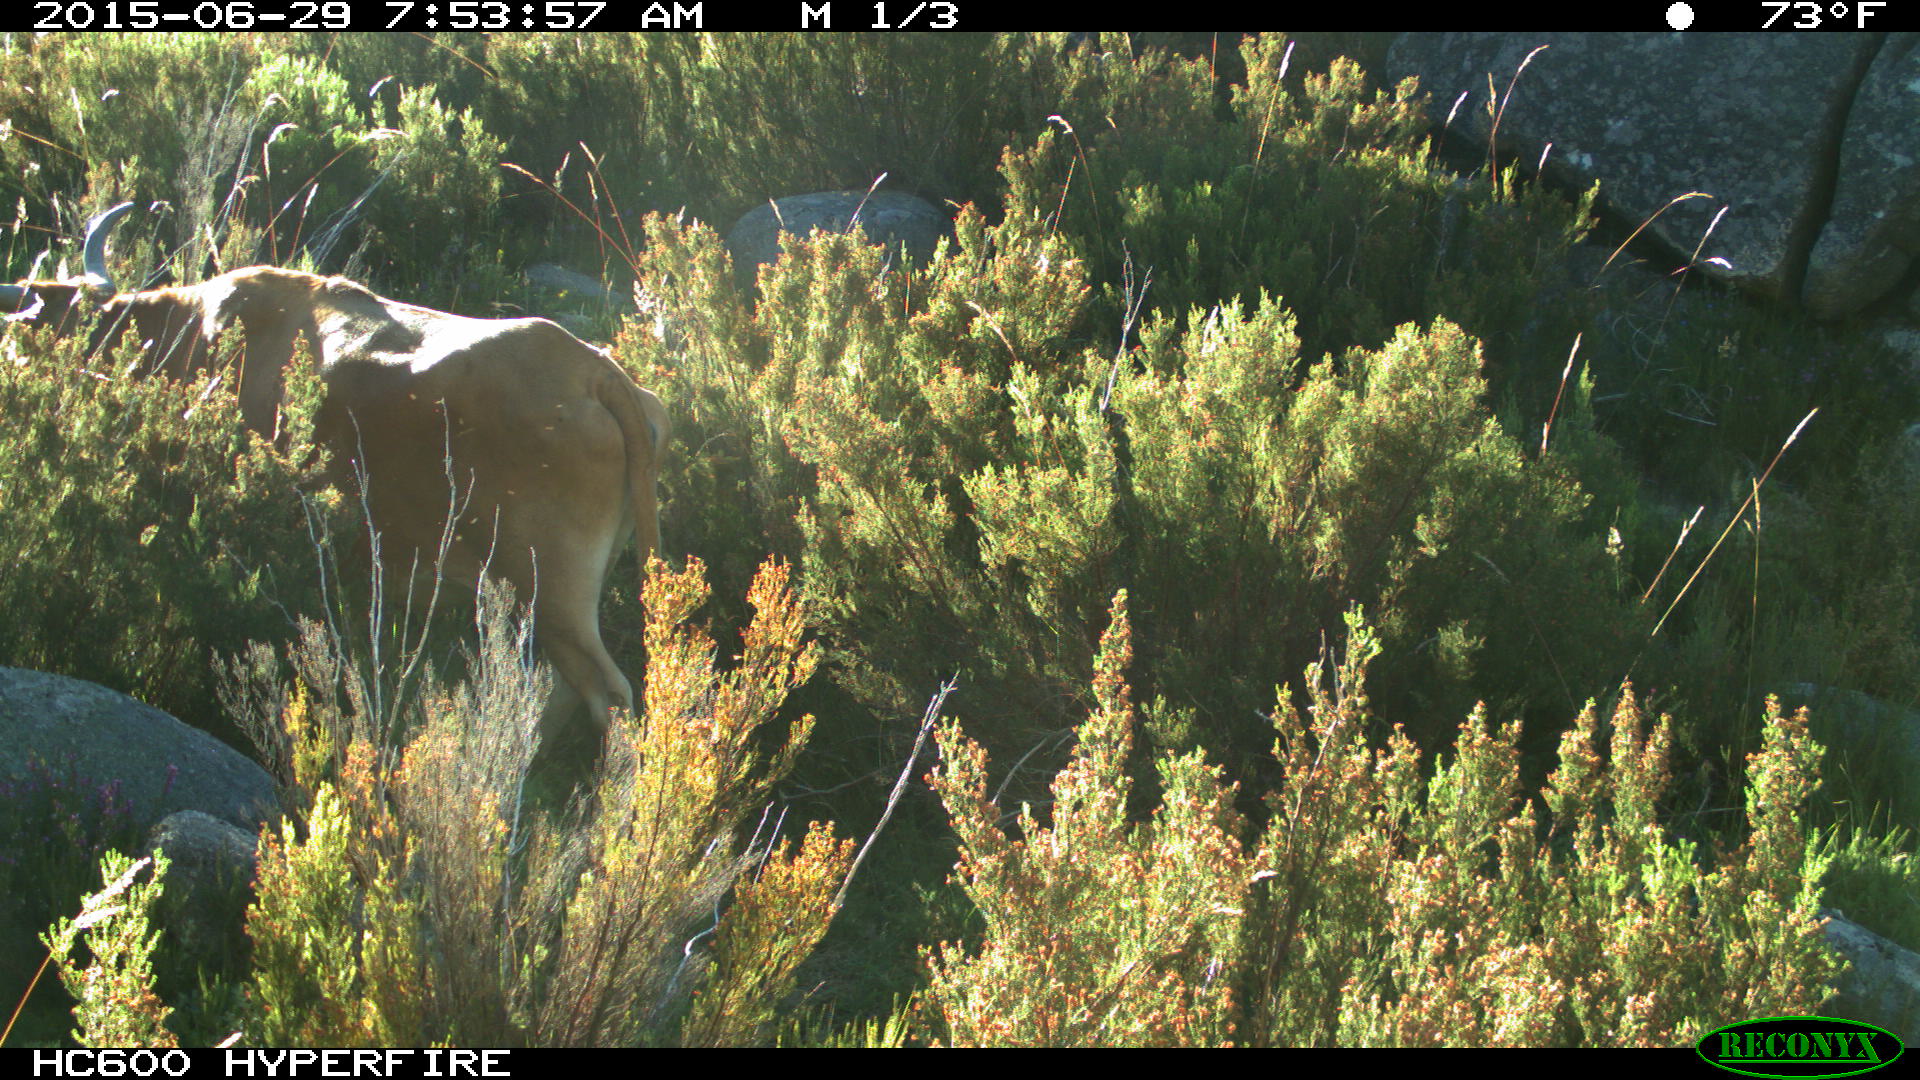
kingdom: Animalia
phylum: Chordata
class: Mammalia
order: Artiodactyla
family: Bovidae
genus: Bos
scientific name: Bos taurus
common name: Domesticated cattle
